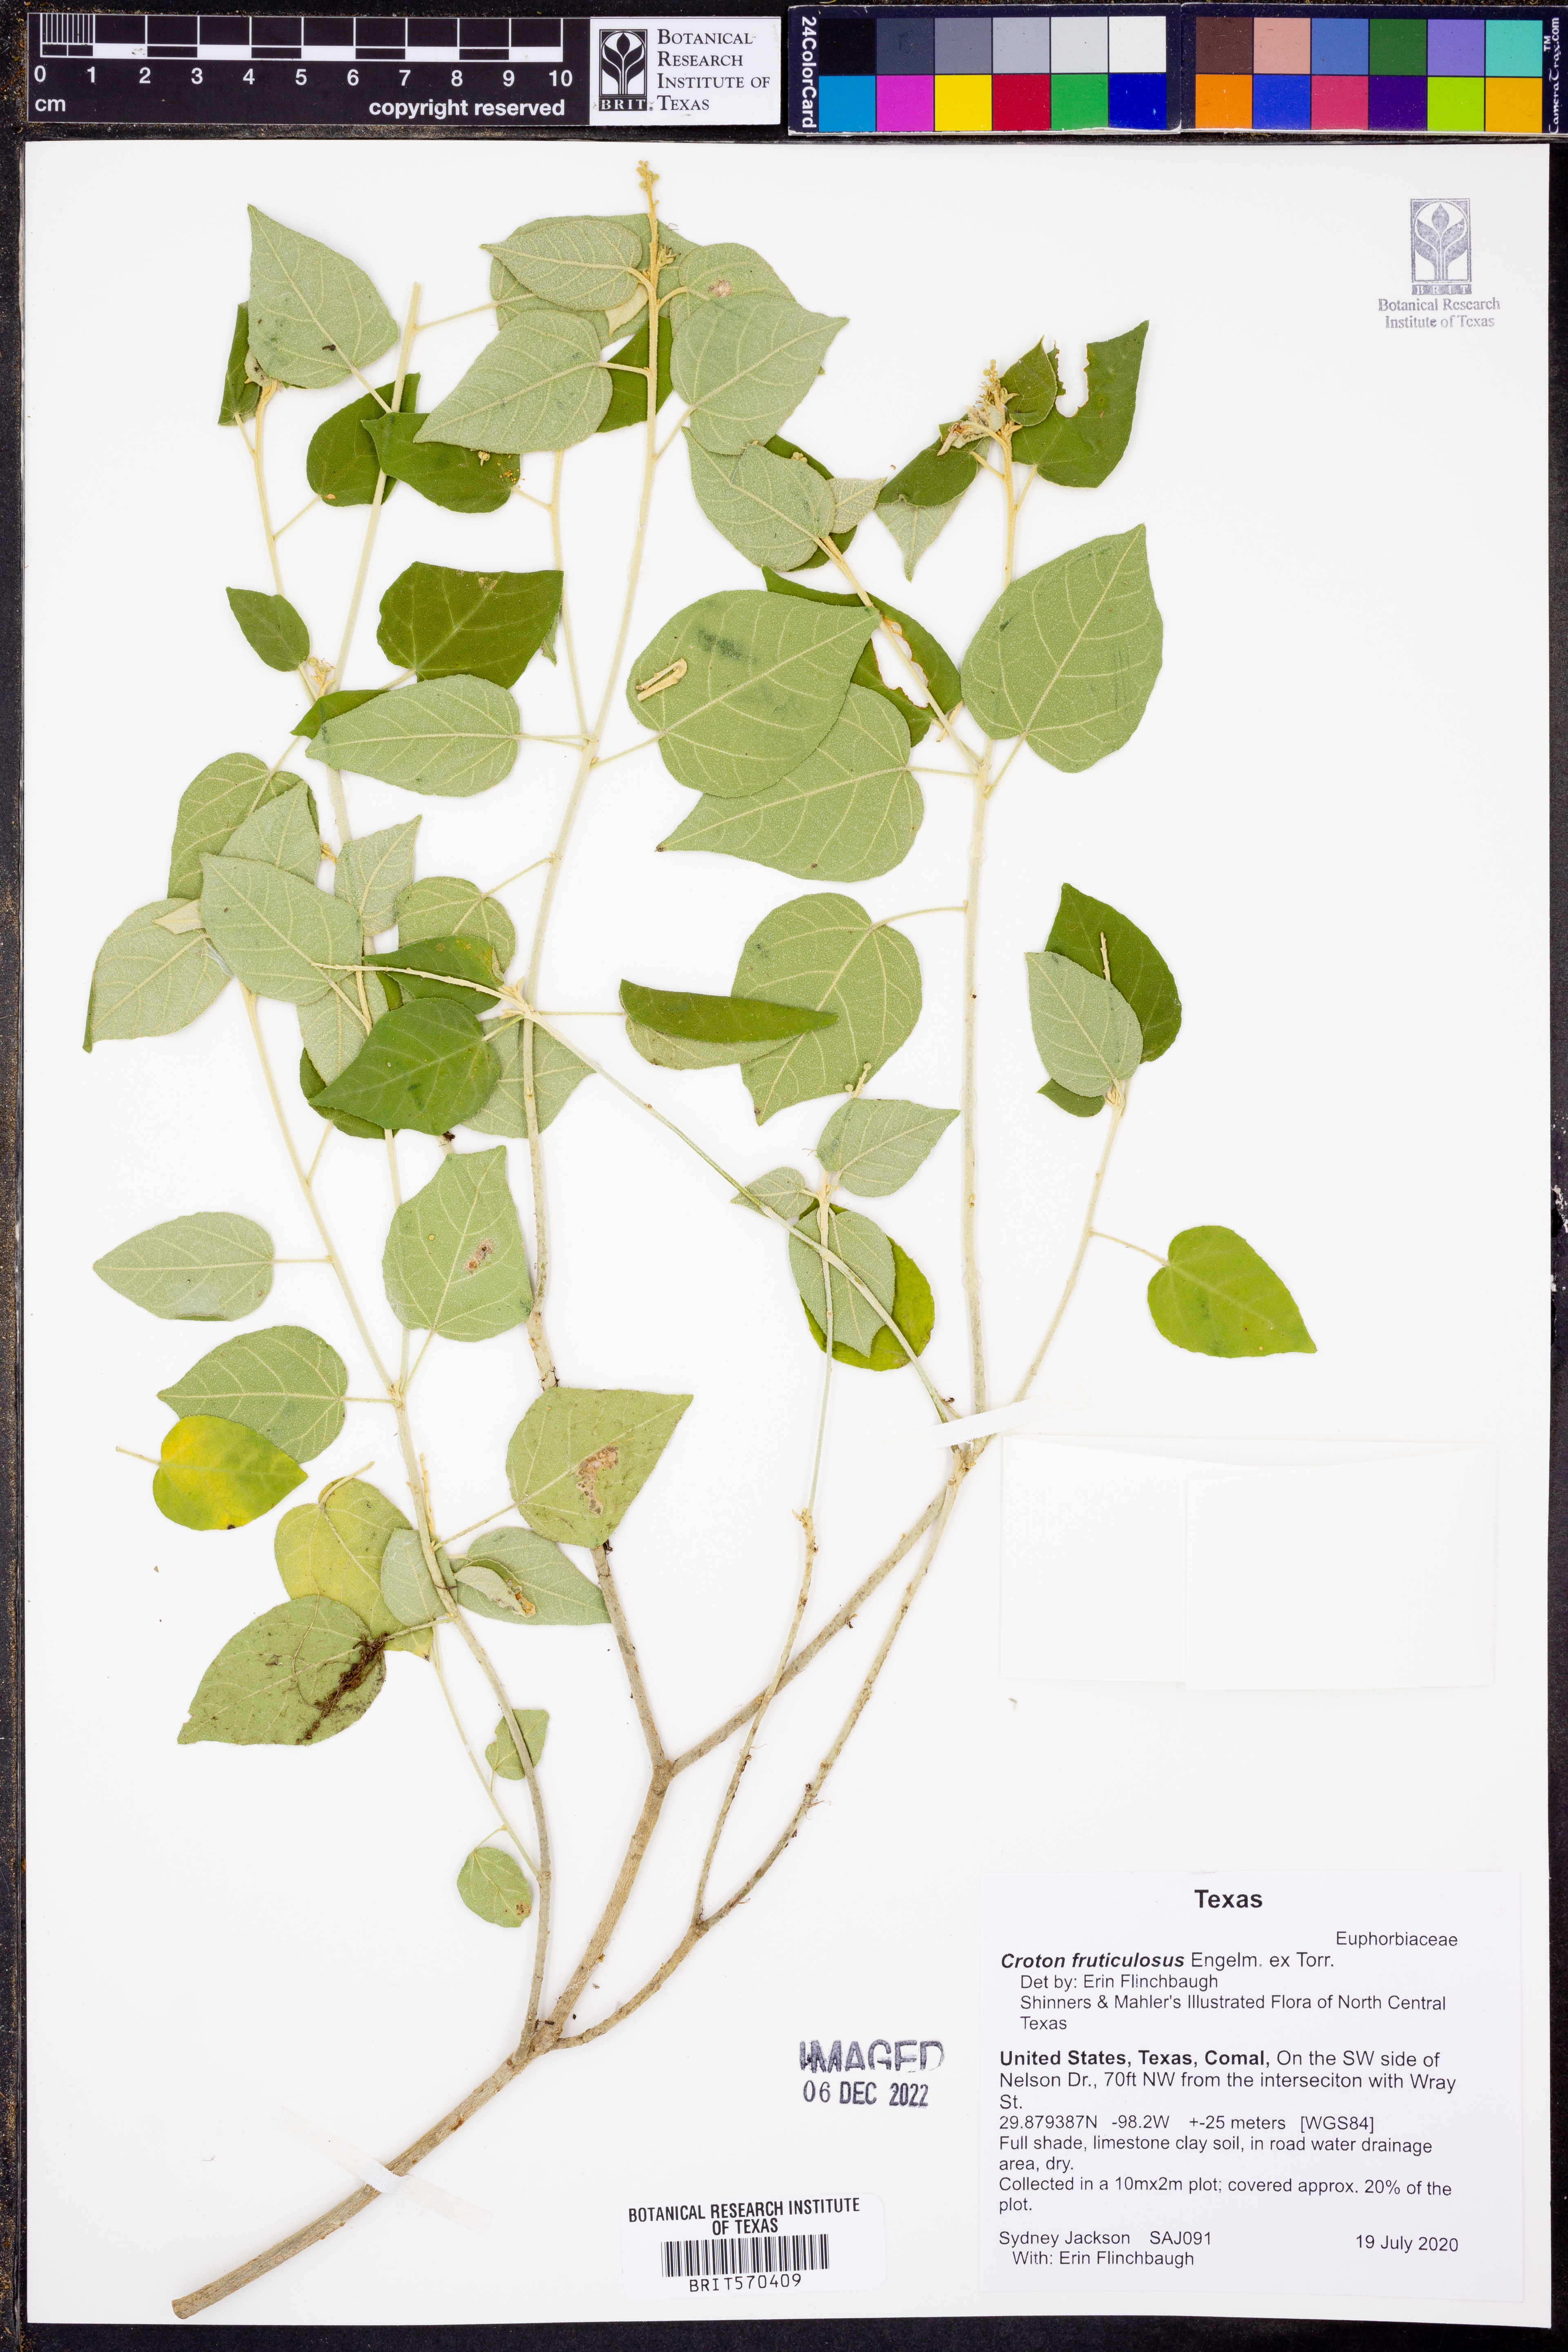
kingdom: Plantae
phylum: Tracheophyta
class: Magnoliopsida
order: Malpighiales
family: Euphorbiaceae
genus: Croton
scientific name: Croton fruticulosus
